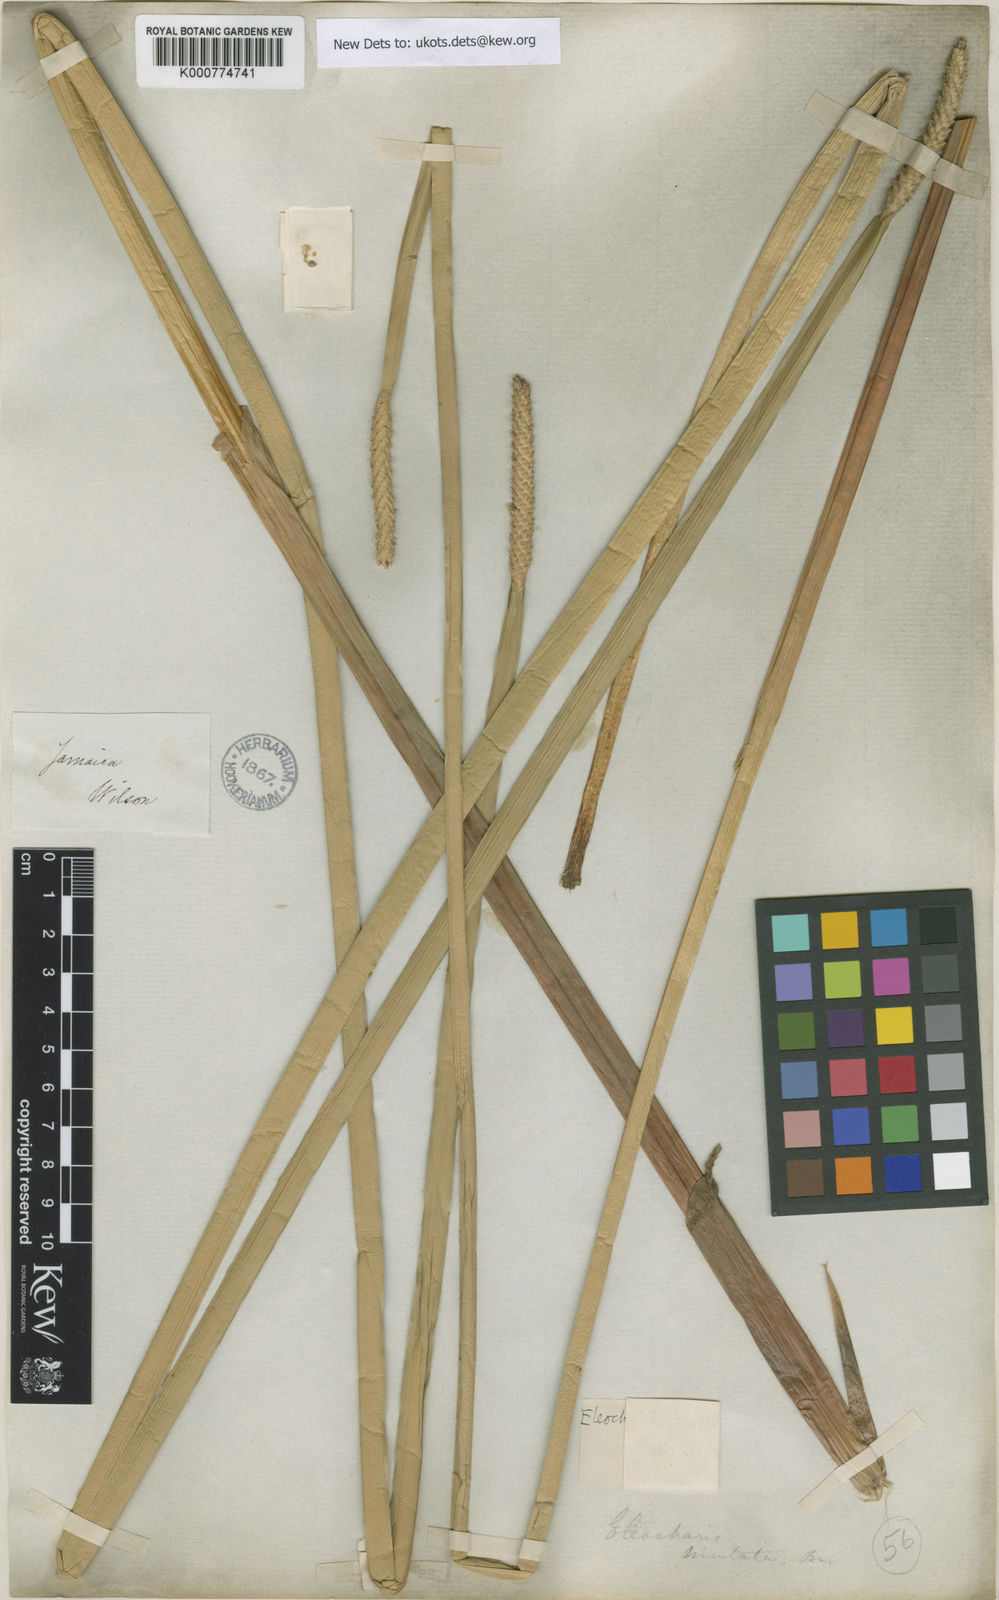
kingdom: Plantae
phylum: Tracheophyta
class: Liliopsida
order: Poales
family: Cyperaceae
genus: Eleocharis
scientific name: Eleocharis mutata
